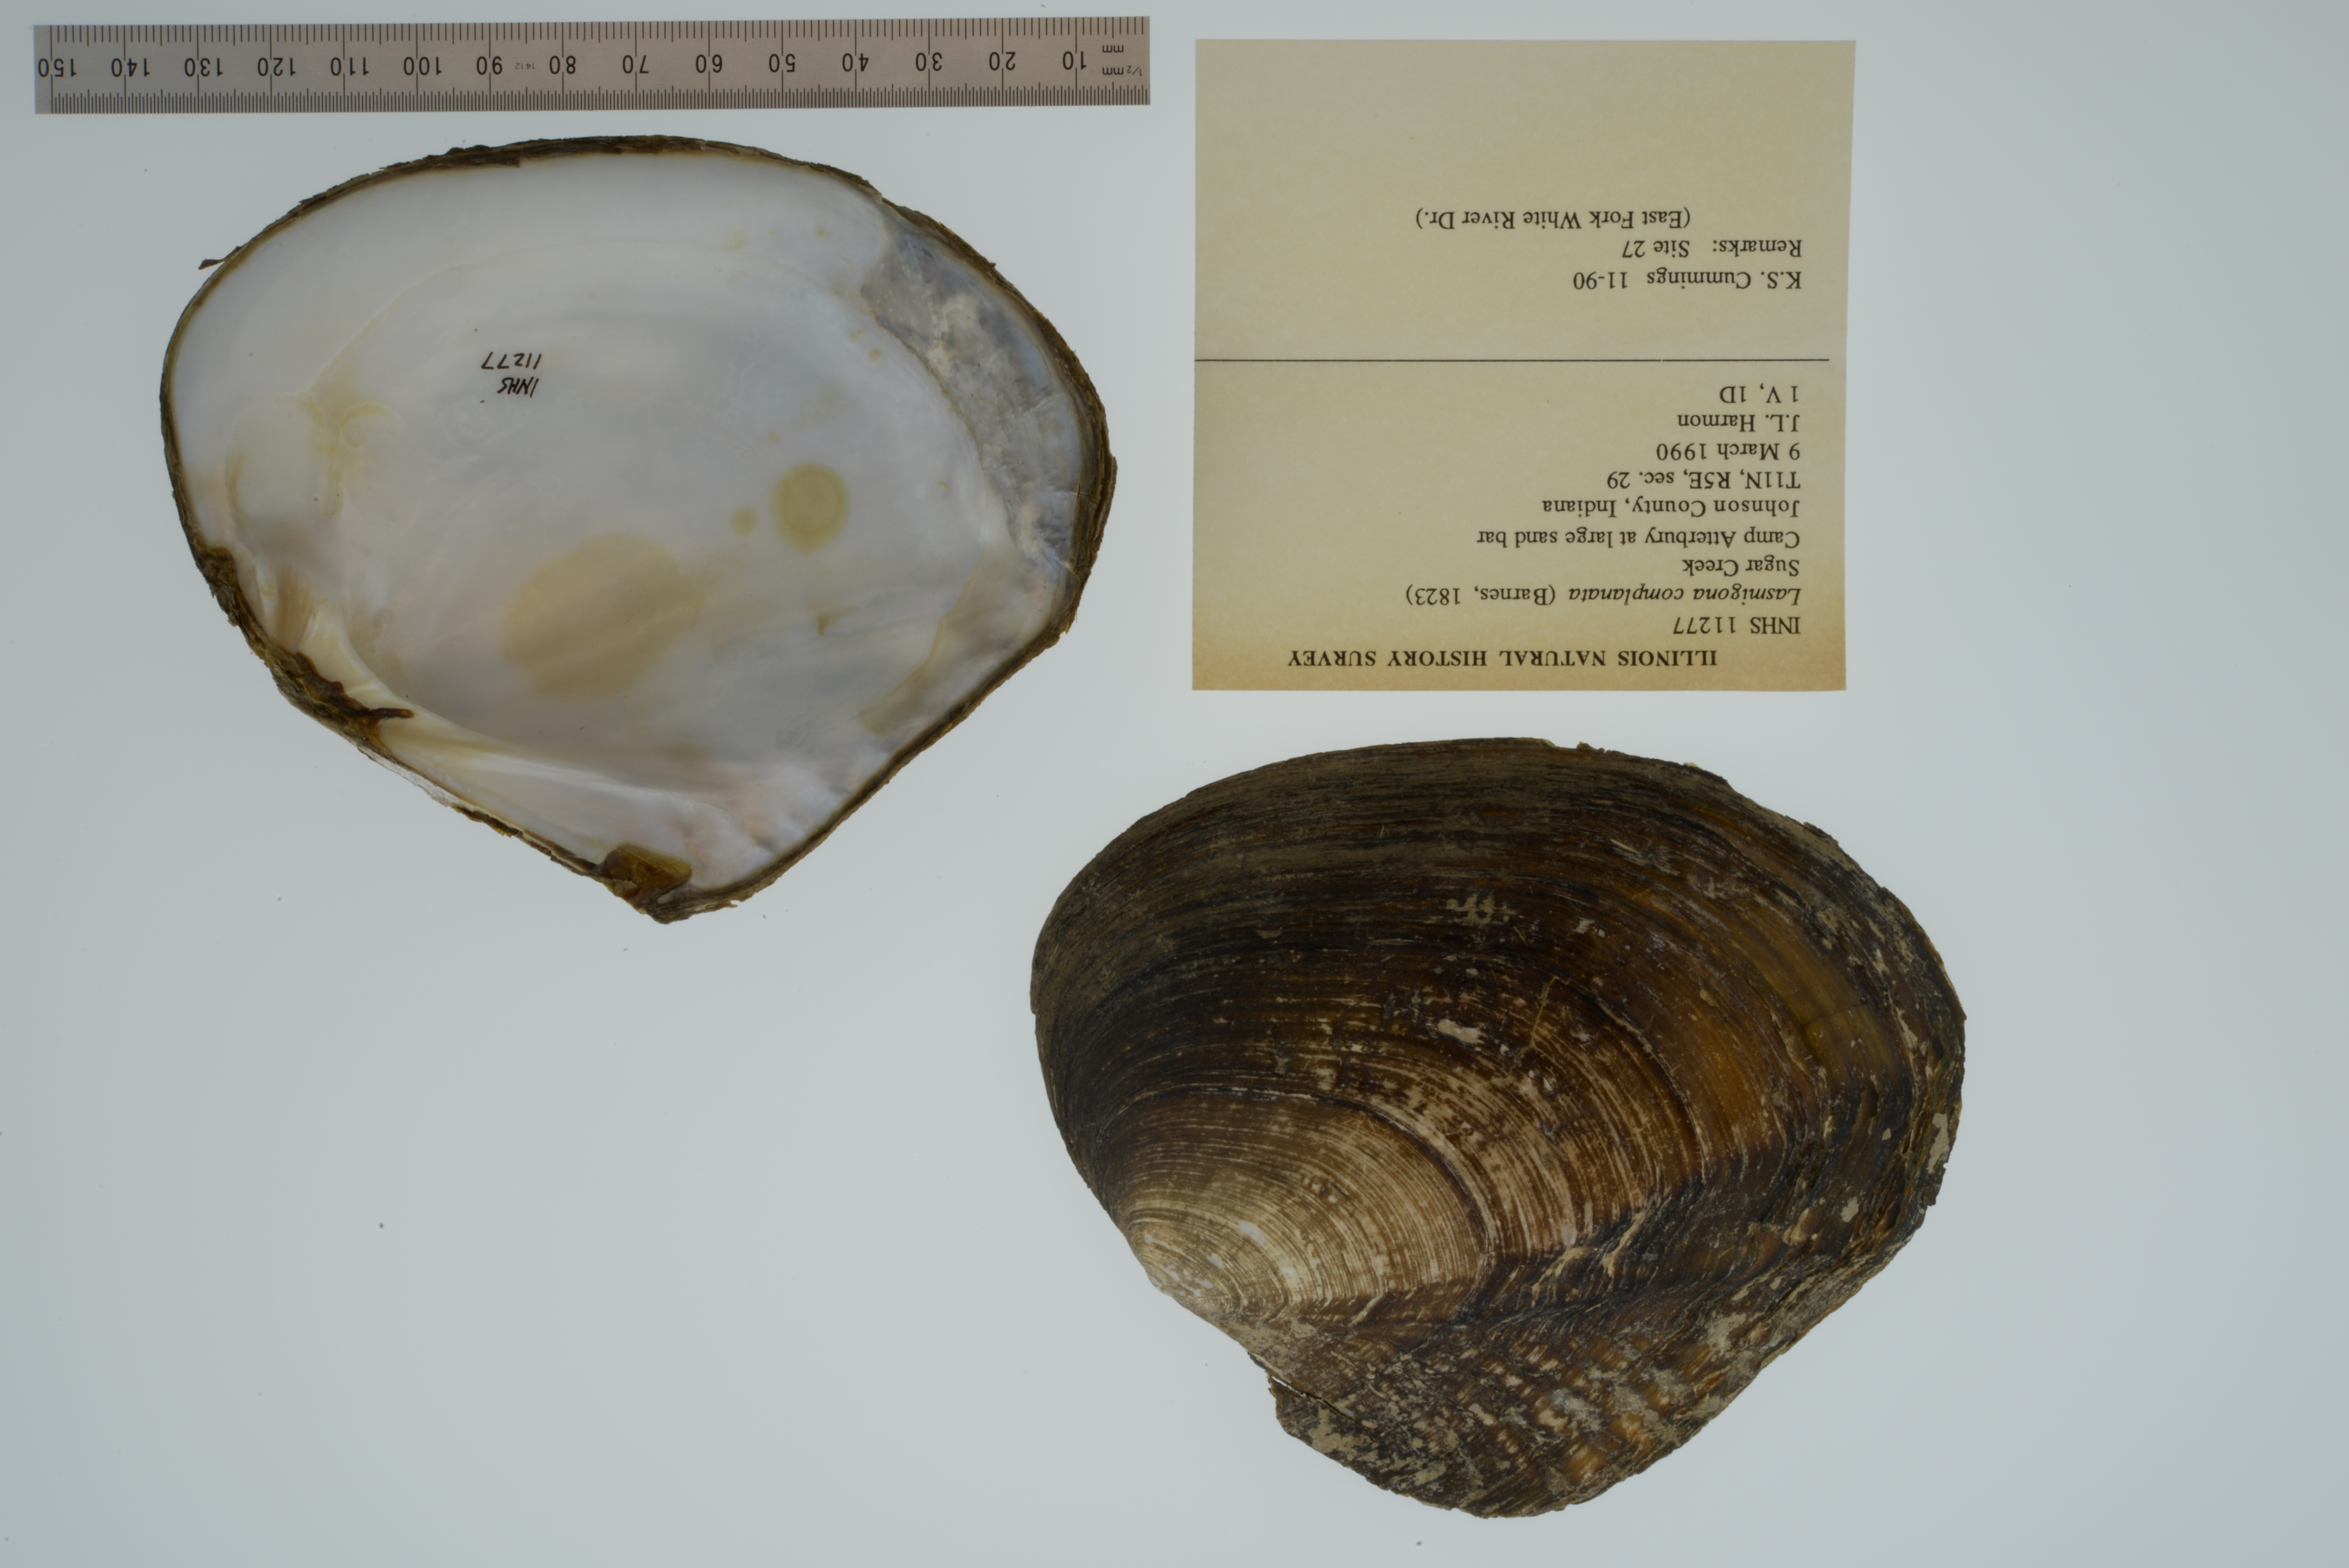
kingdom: Animalia
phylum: Mollusca
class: Bivalvia
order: Unionida
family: Unionidae
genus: Lasmigona
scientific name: Lasmigona complanata
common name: White heelsplitter
